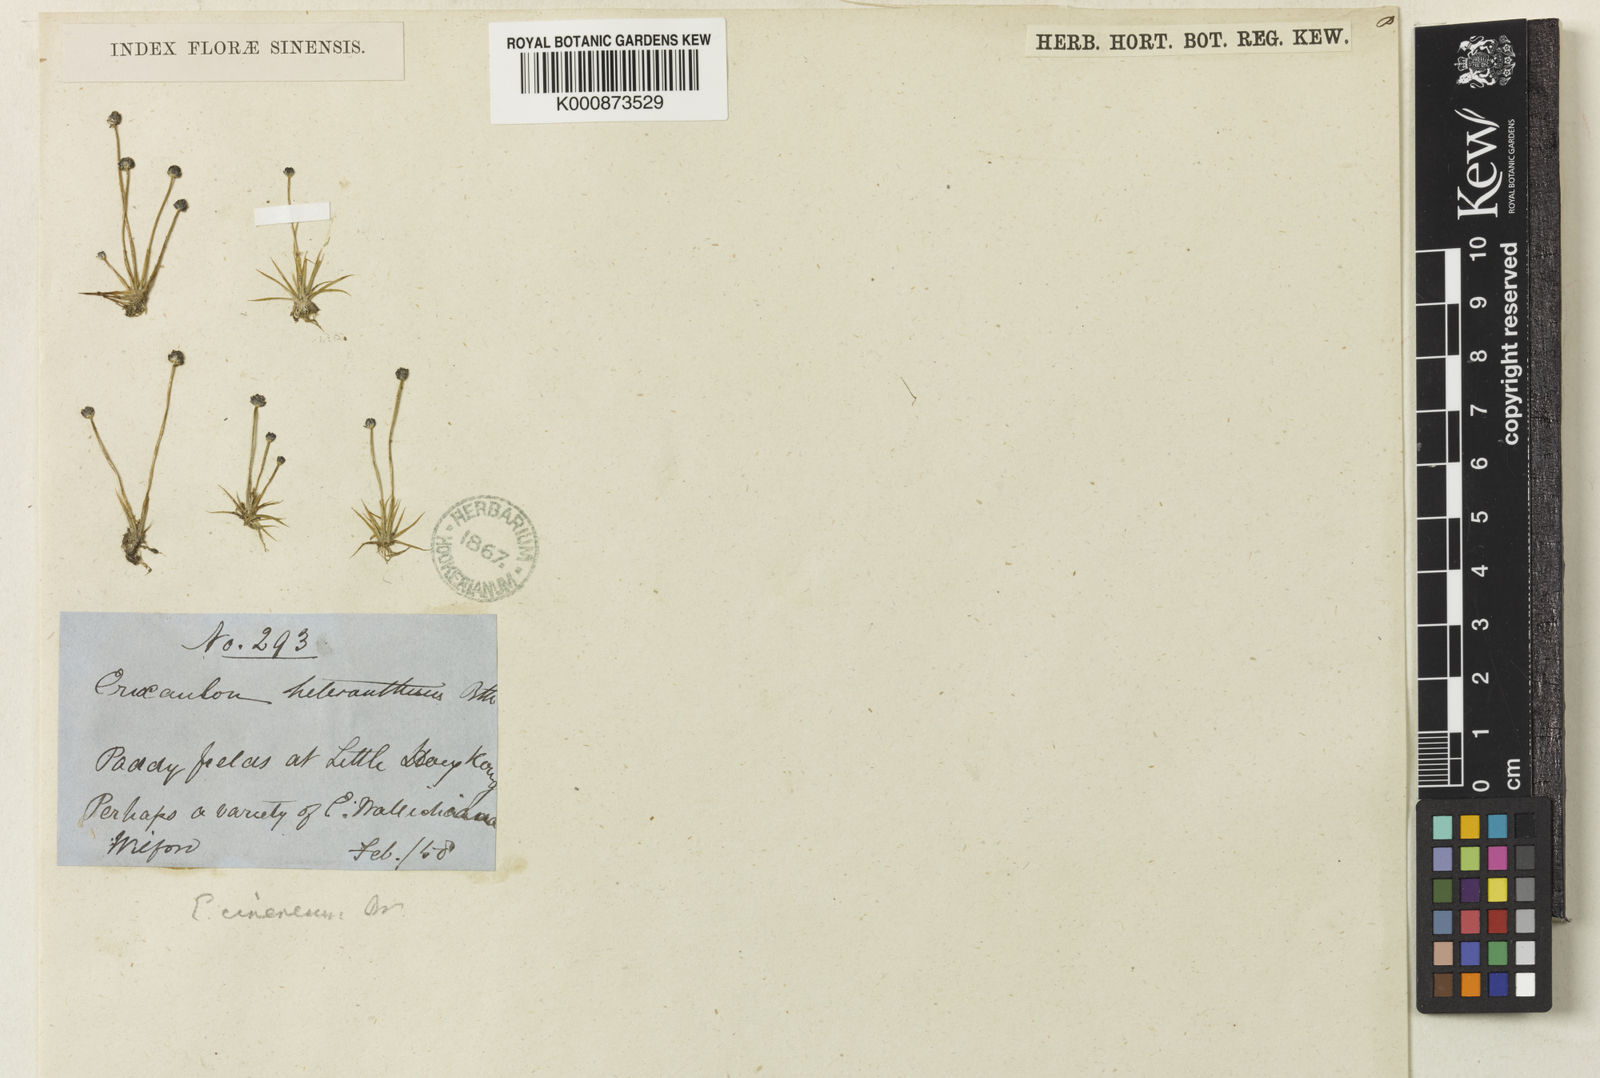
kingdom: Plantae
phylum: Tracheophyta
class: Liliopsida
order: Poales
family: Eriocaulaceae
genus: Eriocaulon
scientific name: Eriocaulon
